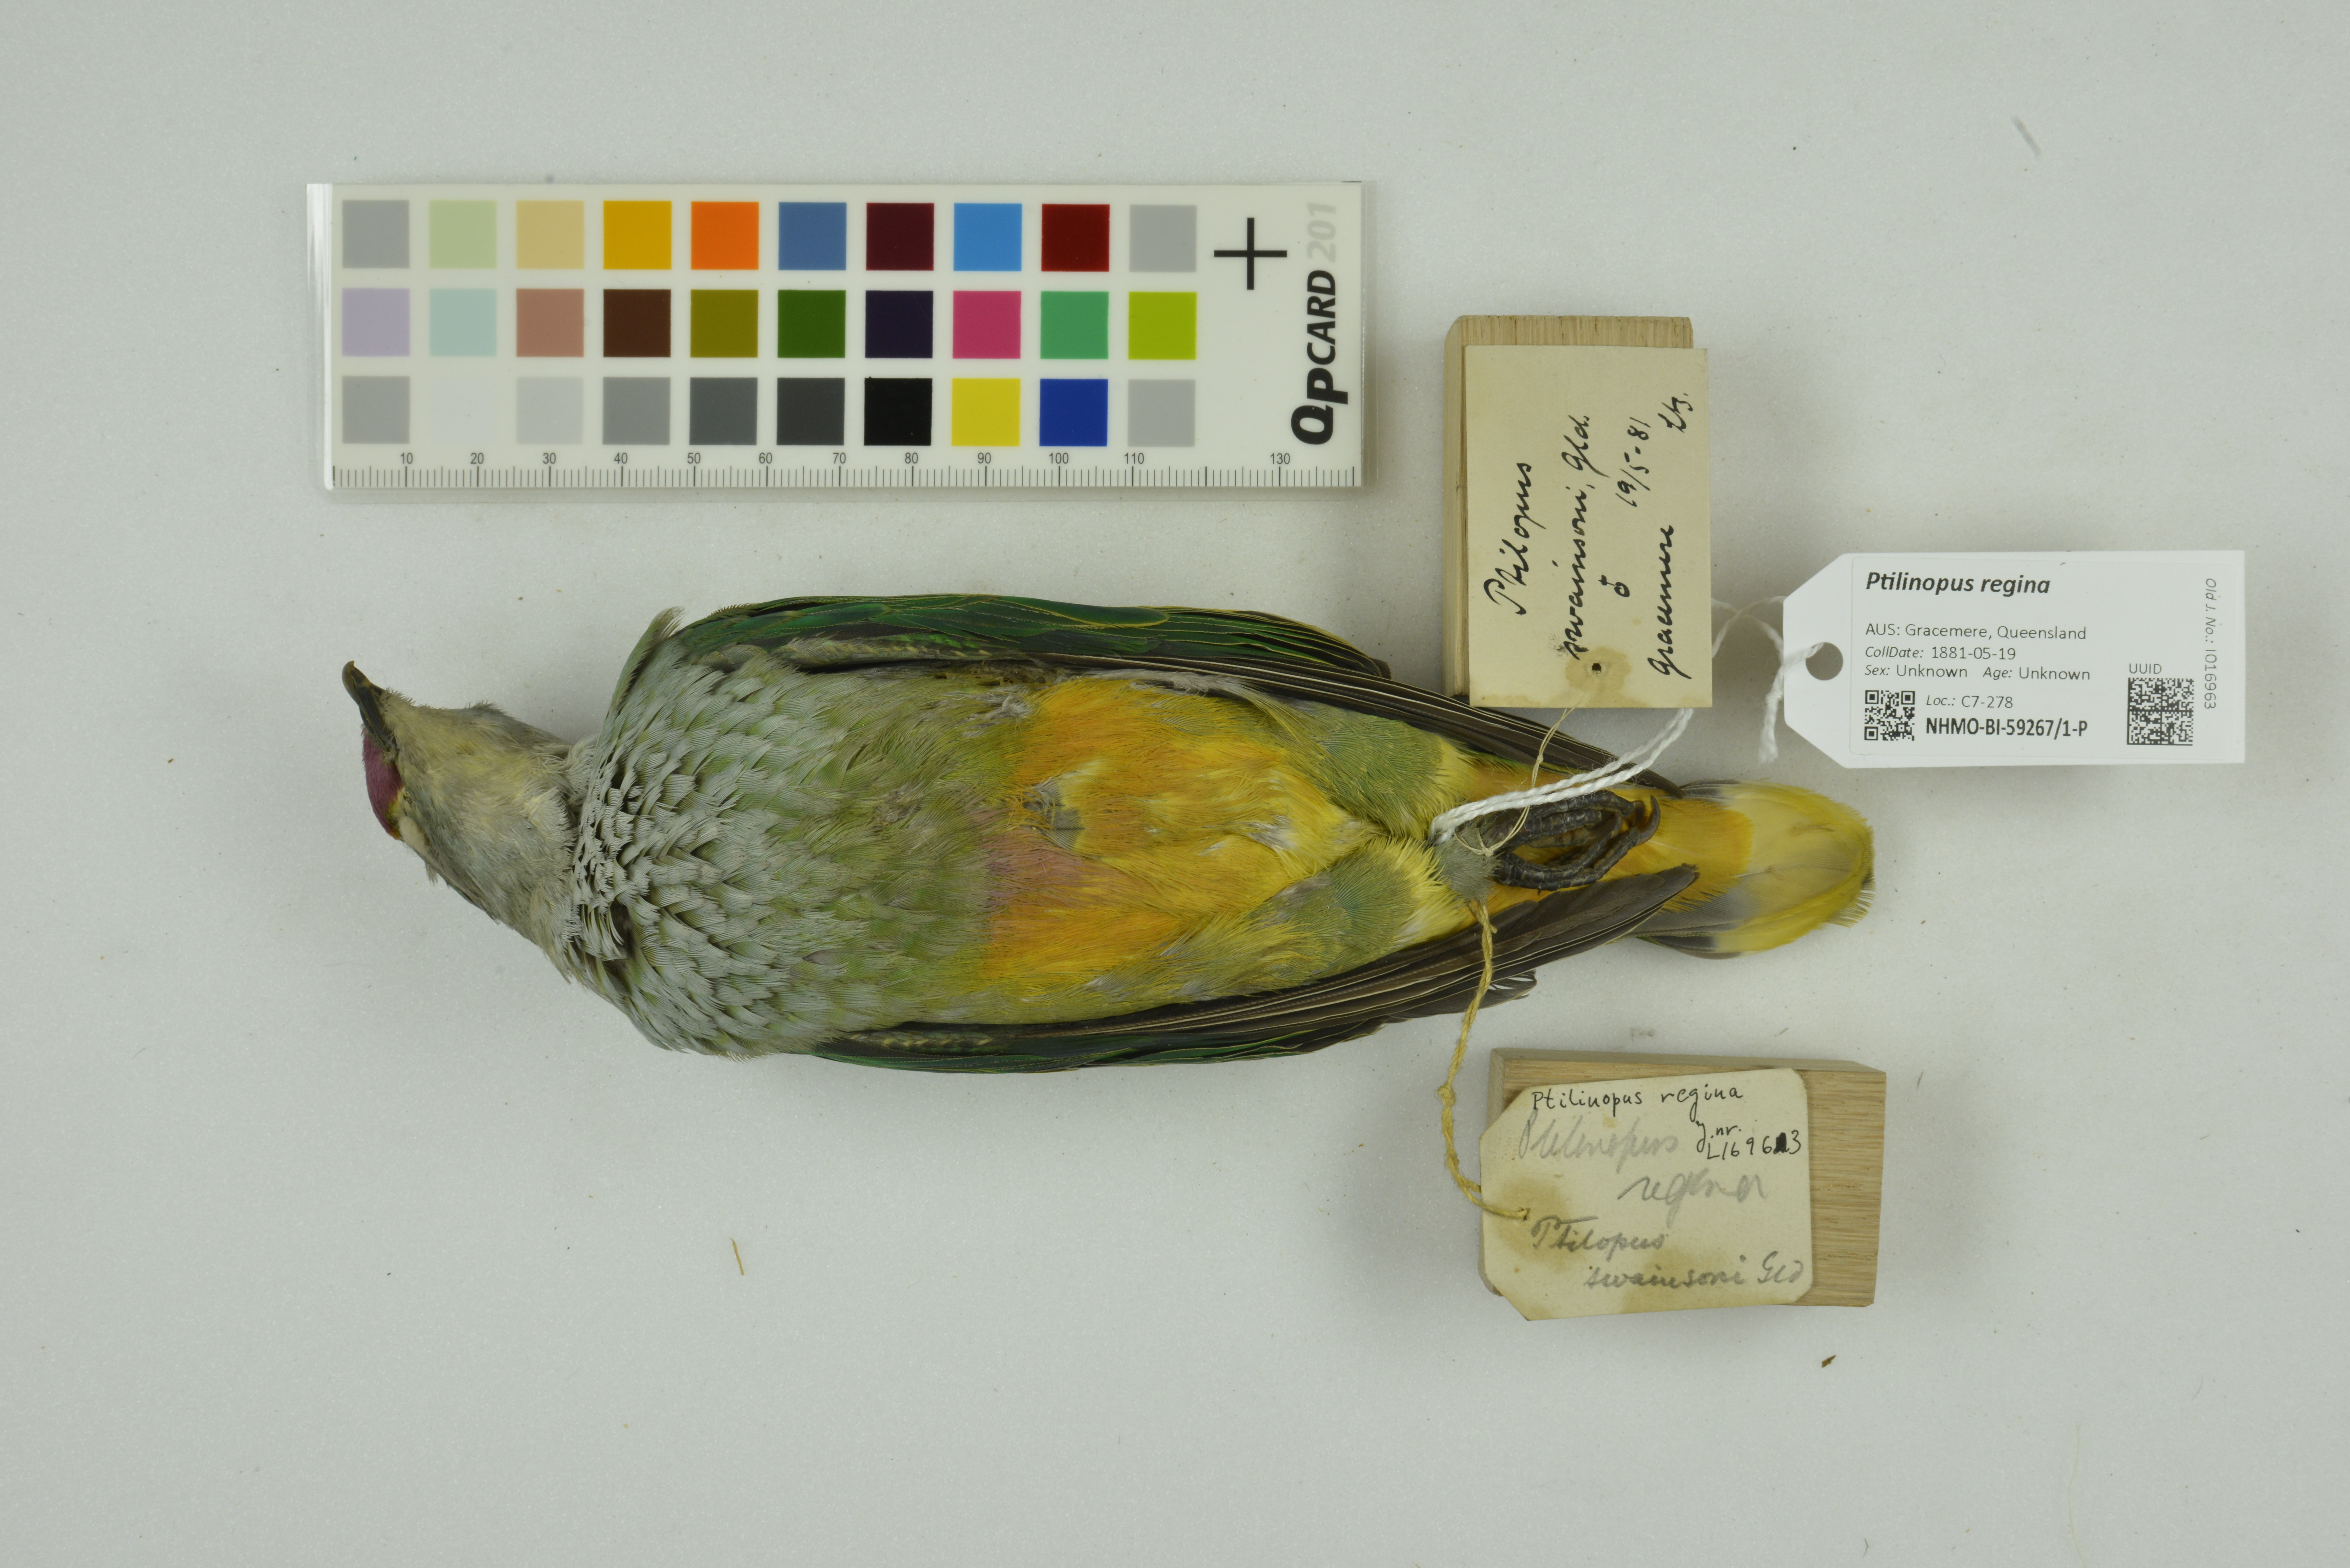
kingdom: Animalia
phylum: Chordata
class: Aves
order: Columbiformes
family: Columbidae
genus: Ptilinopus
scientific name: Ptilinopus regina
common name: Rose-crowned fruit dove
